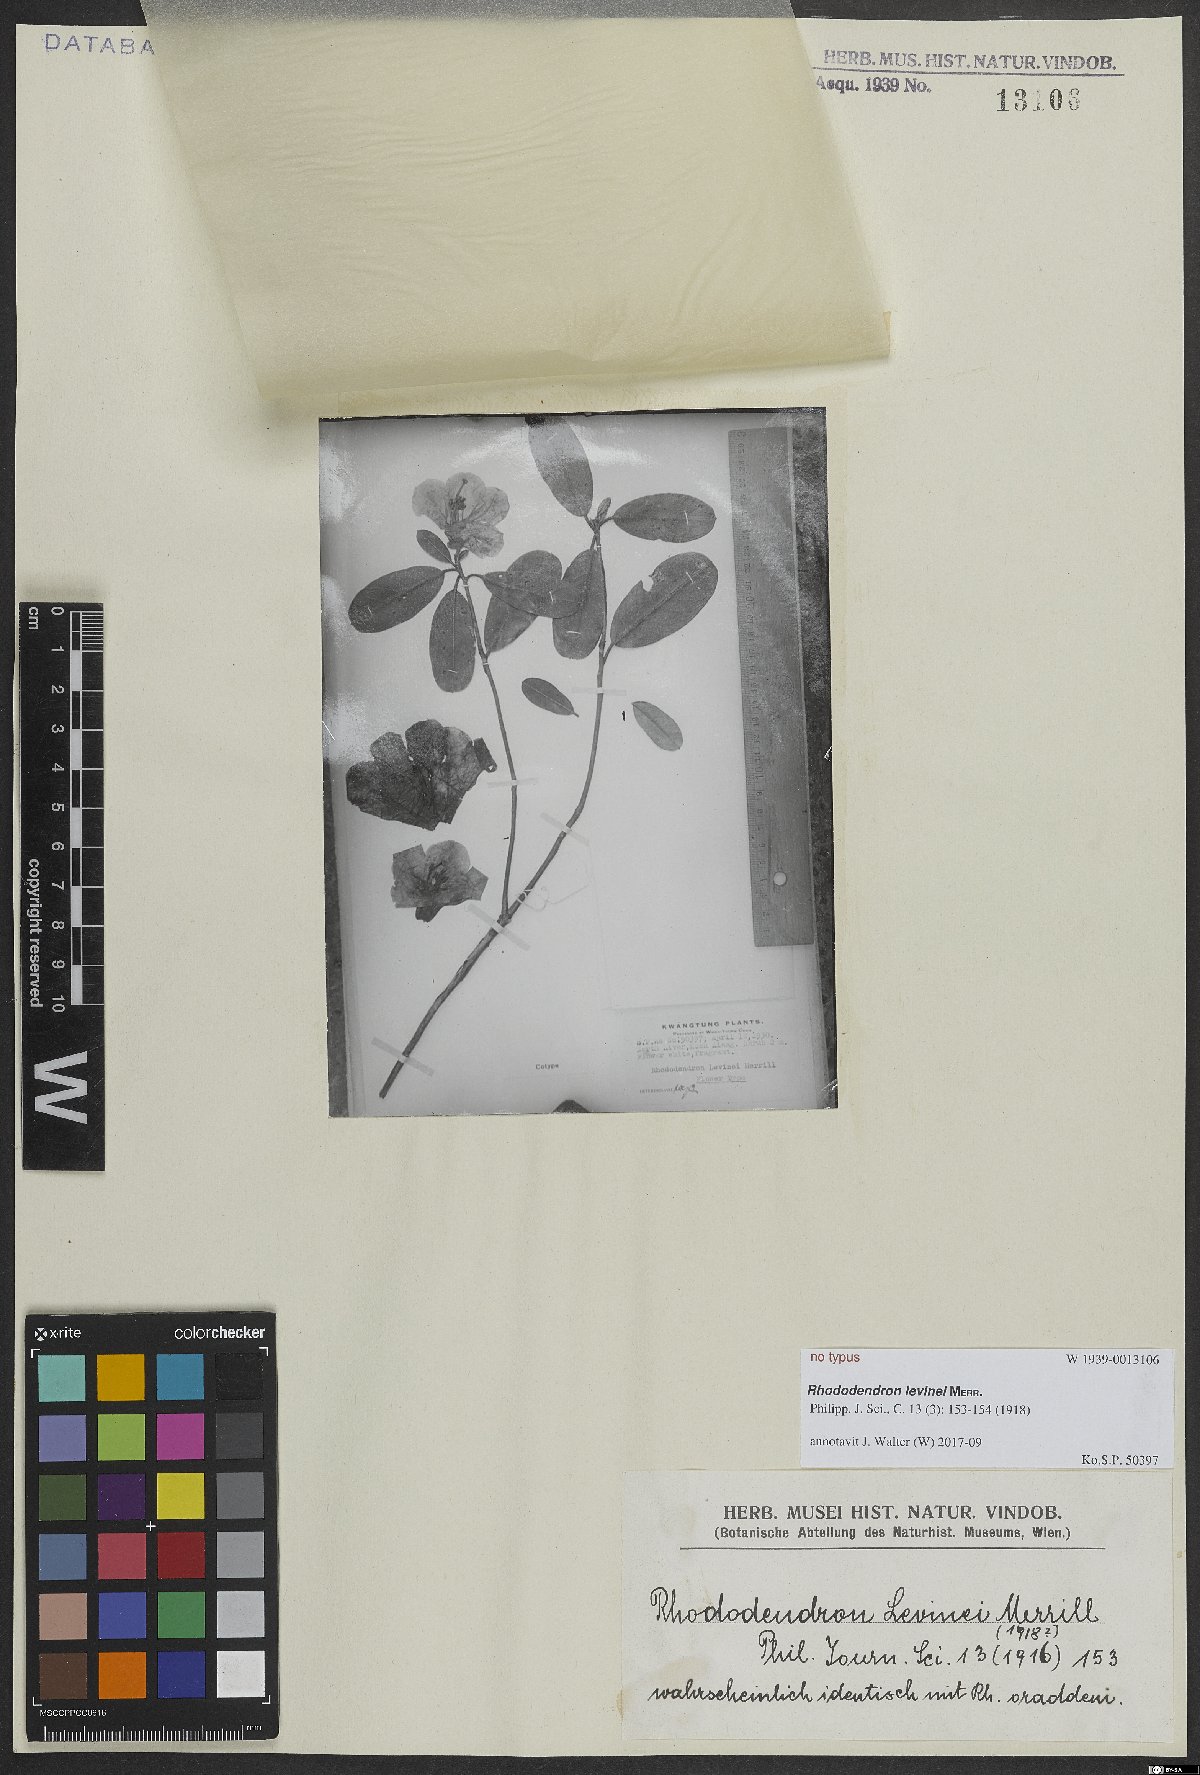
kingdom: Plantae
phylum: Tracheophyta
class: Magnoliopsida
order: Ericales
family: Ericaceae
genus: Rhododendron
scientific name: Rhododendron levinei
